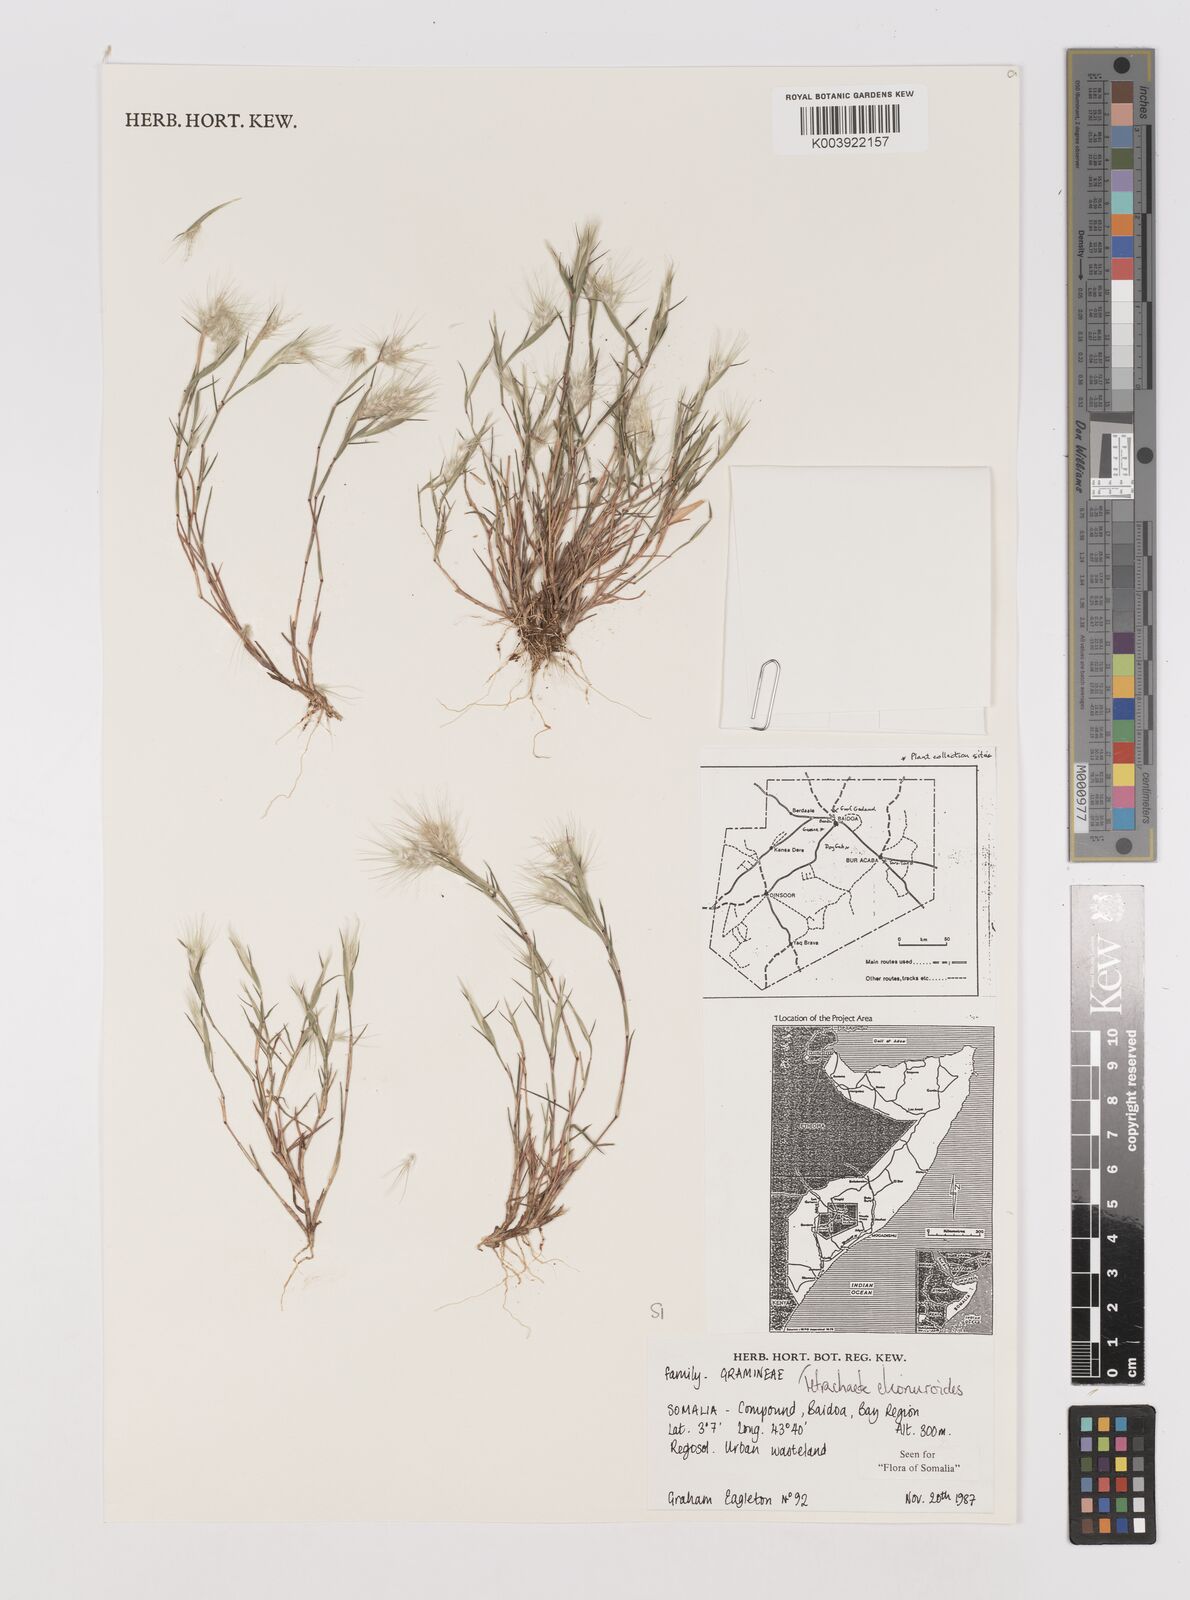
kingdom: Plantae
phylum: Tracheophyta
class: Liliopsida
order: Poales
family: Poaceae
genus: Tetrachaete
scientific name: Tetrachaete elionuroides
